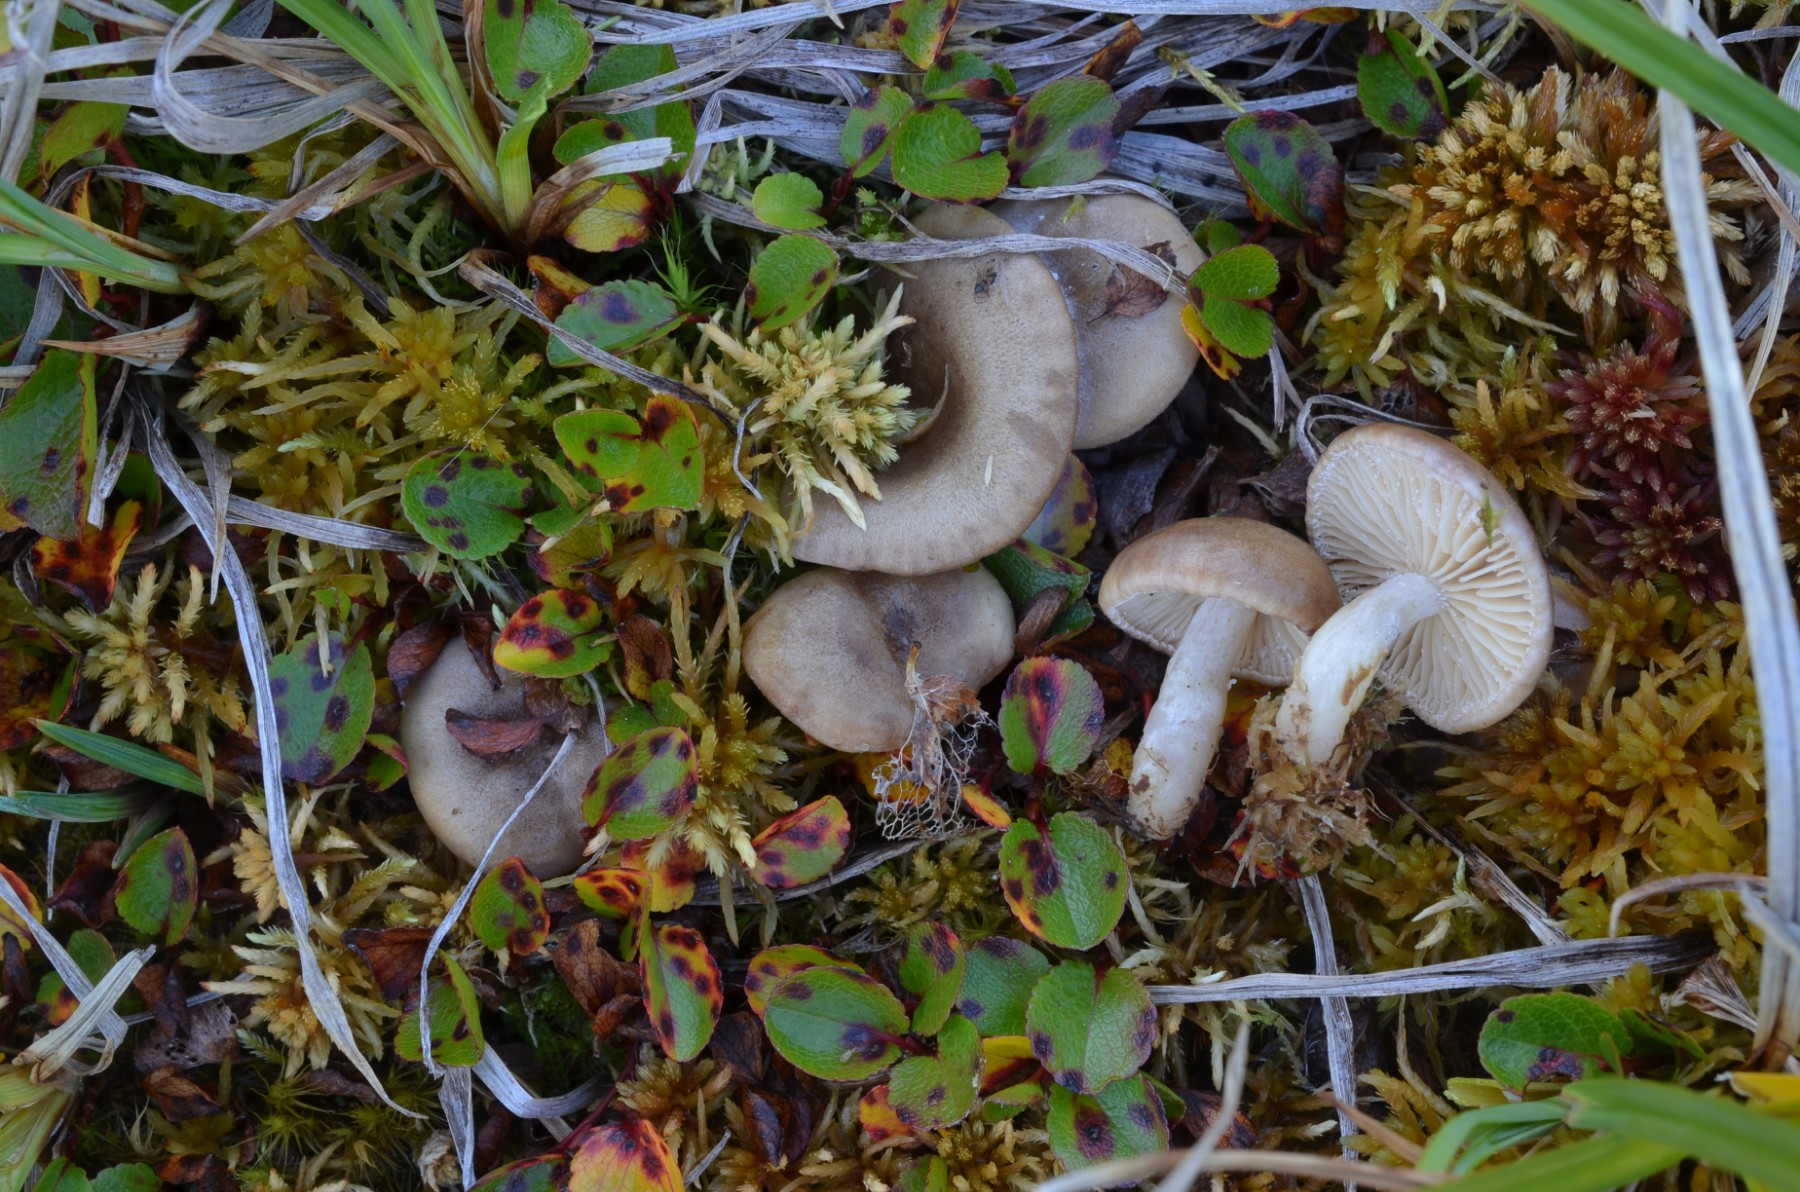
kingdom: Fungi
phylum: Basidiomycota
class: Agaricomycetes
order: Russulales
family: Russulaceae
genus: Lactarius
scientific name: Lactarius pseudouvidus
